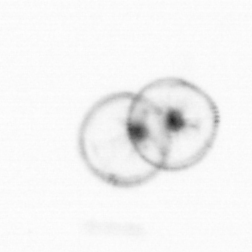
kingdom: Chromista
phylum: Myzozoa
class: Dinophyceae
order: Noctilucales
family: Noctilucaceae
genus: Noctiluca
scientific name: Noctiluca scintillans
